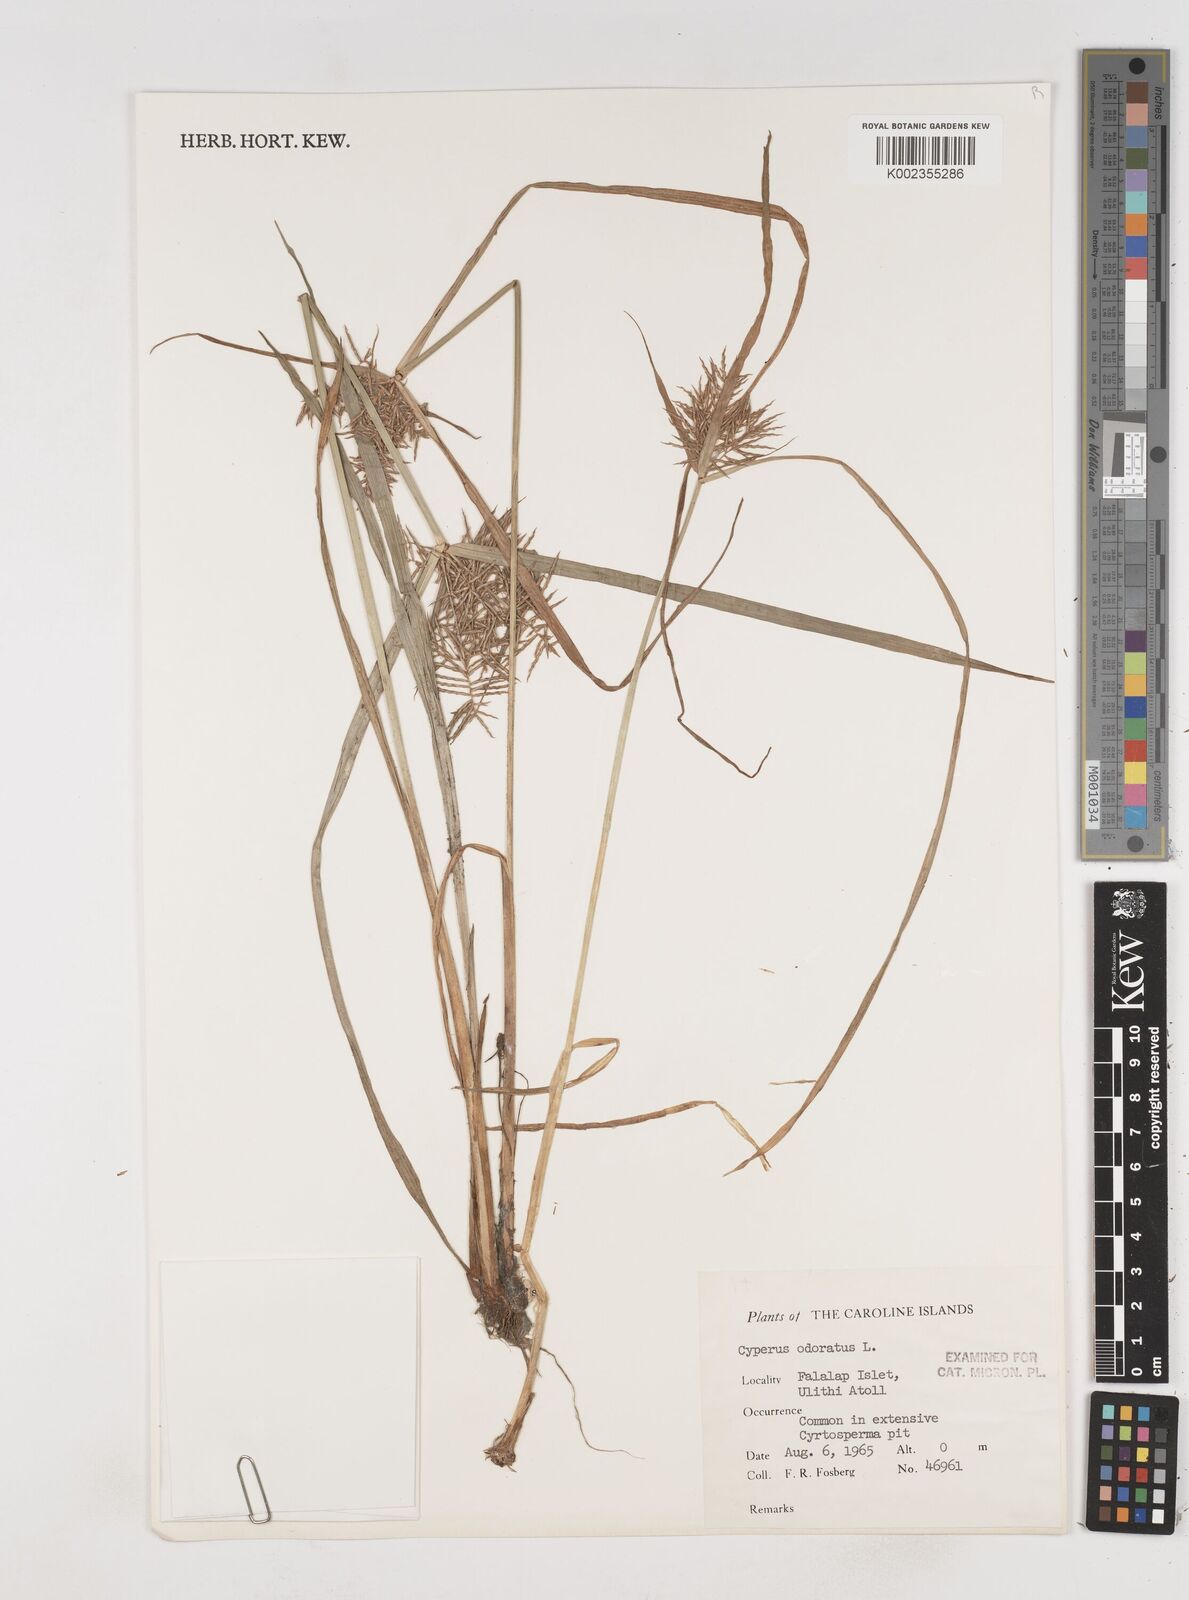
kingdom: Plantae
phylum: Tracheophyta
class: Liliopsida
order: Poales
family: Cyperaceae
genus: Cyperus
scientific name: Cyperus odoratus
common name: Fragrant flatsedge
